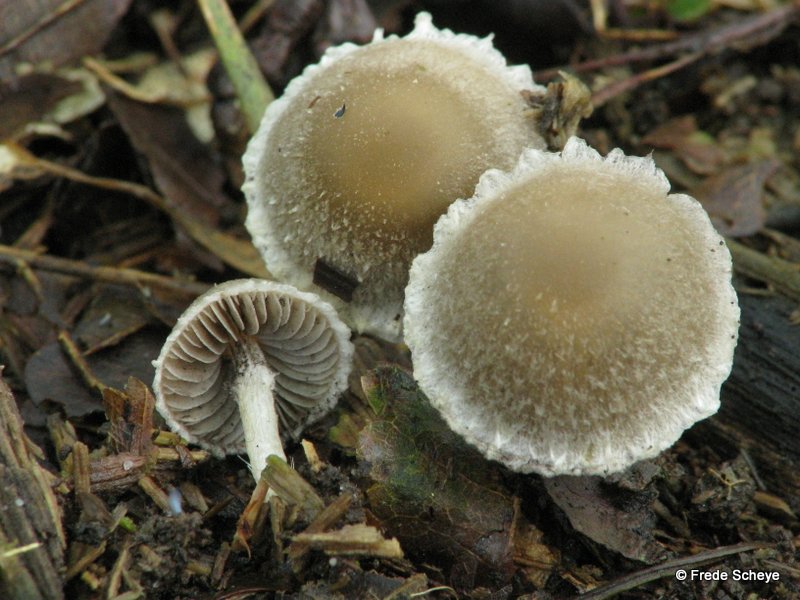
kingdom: Fungi
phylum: Basidiomycota
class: Agaricomycetes
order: Agaricales
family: Psathyrellaceae
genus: Psathyrella
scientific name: Psathyrella fibrillosa
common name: almindelig mørkhat
